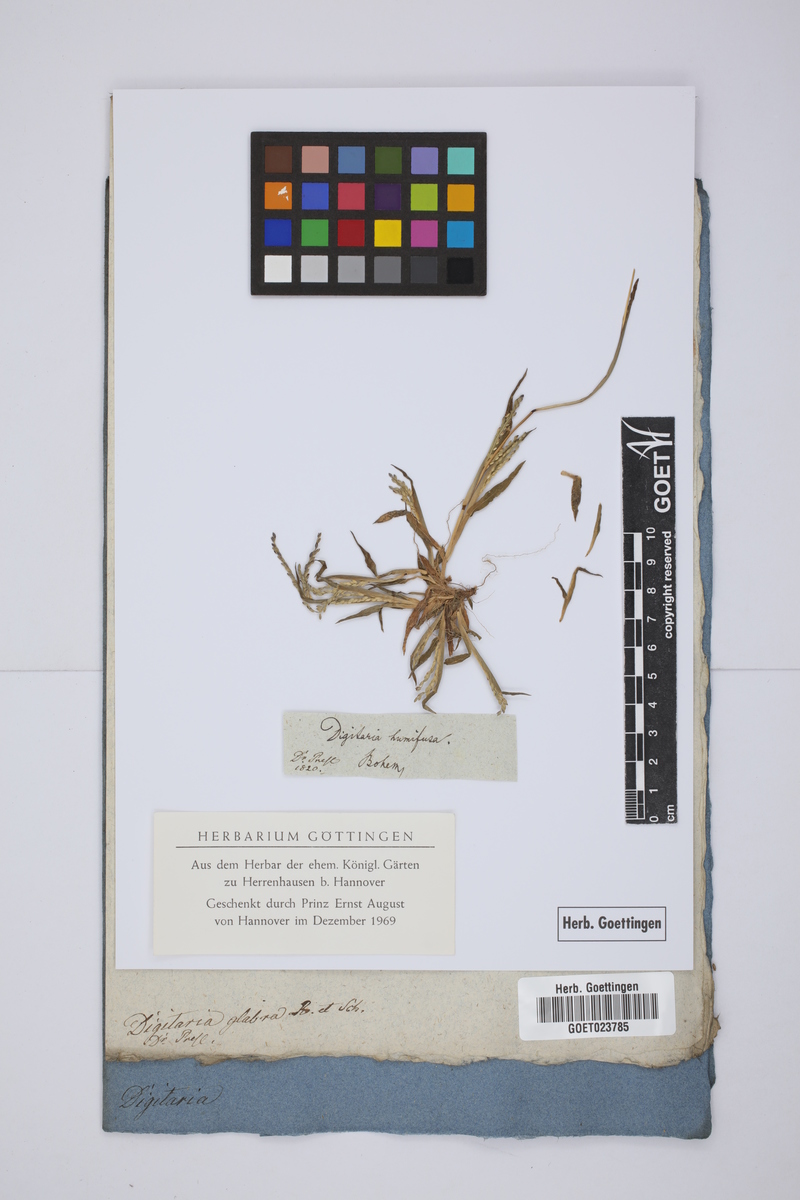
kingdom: Plantae
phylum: Tracheophyta
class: Liliopsida
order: Poales
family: Poaceae
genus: Digitaria
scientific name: Digitaria ischaemum
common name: Smooth crabgrass
